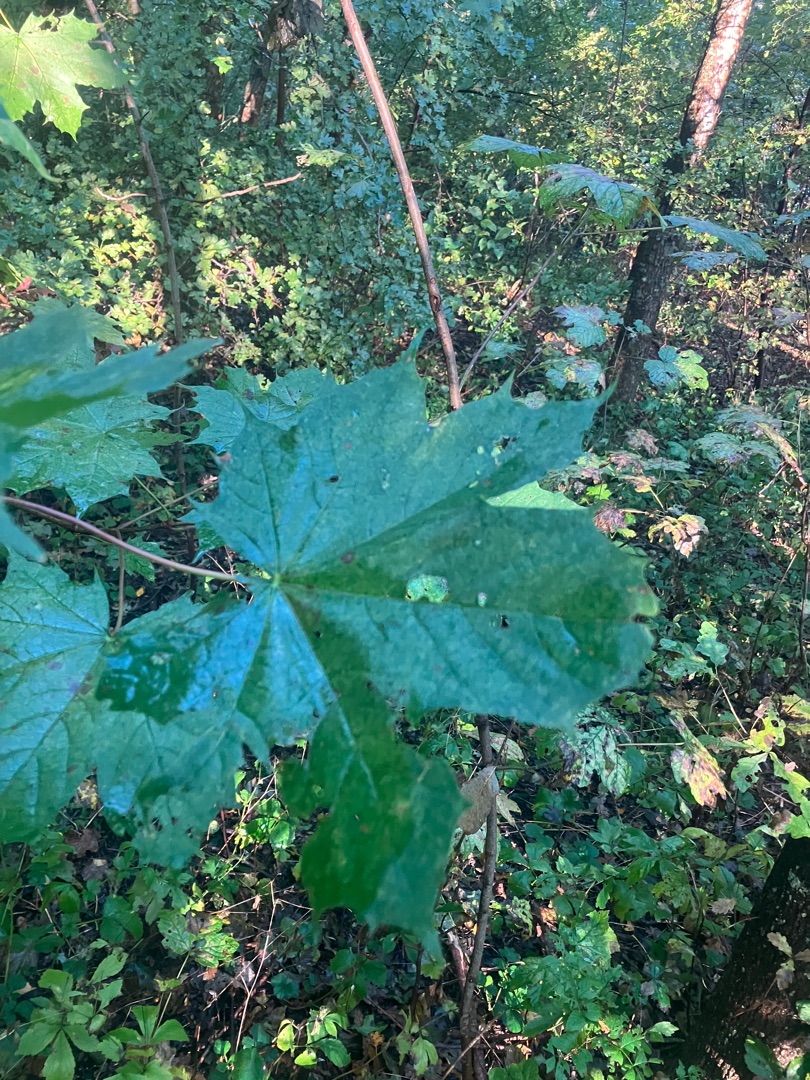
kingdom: Plantae
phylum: Tracheophyta
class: Magnoliopsida
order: Sapindales
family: Sapindaceae
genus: Acer
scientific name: Acer platanoides
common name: Spids-løn
